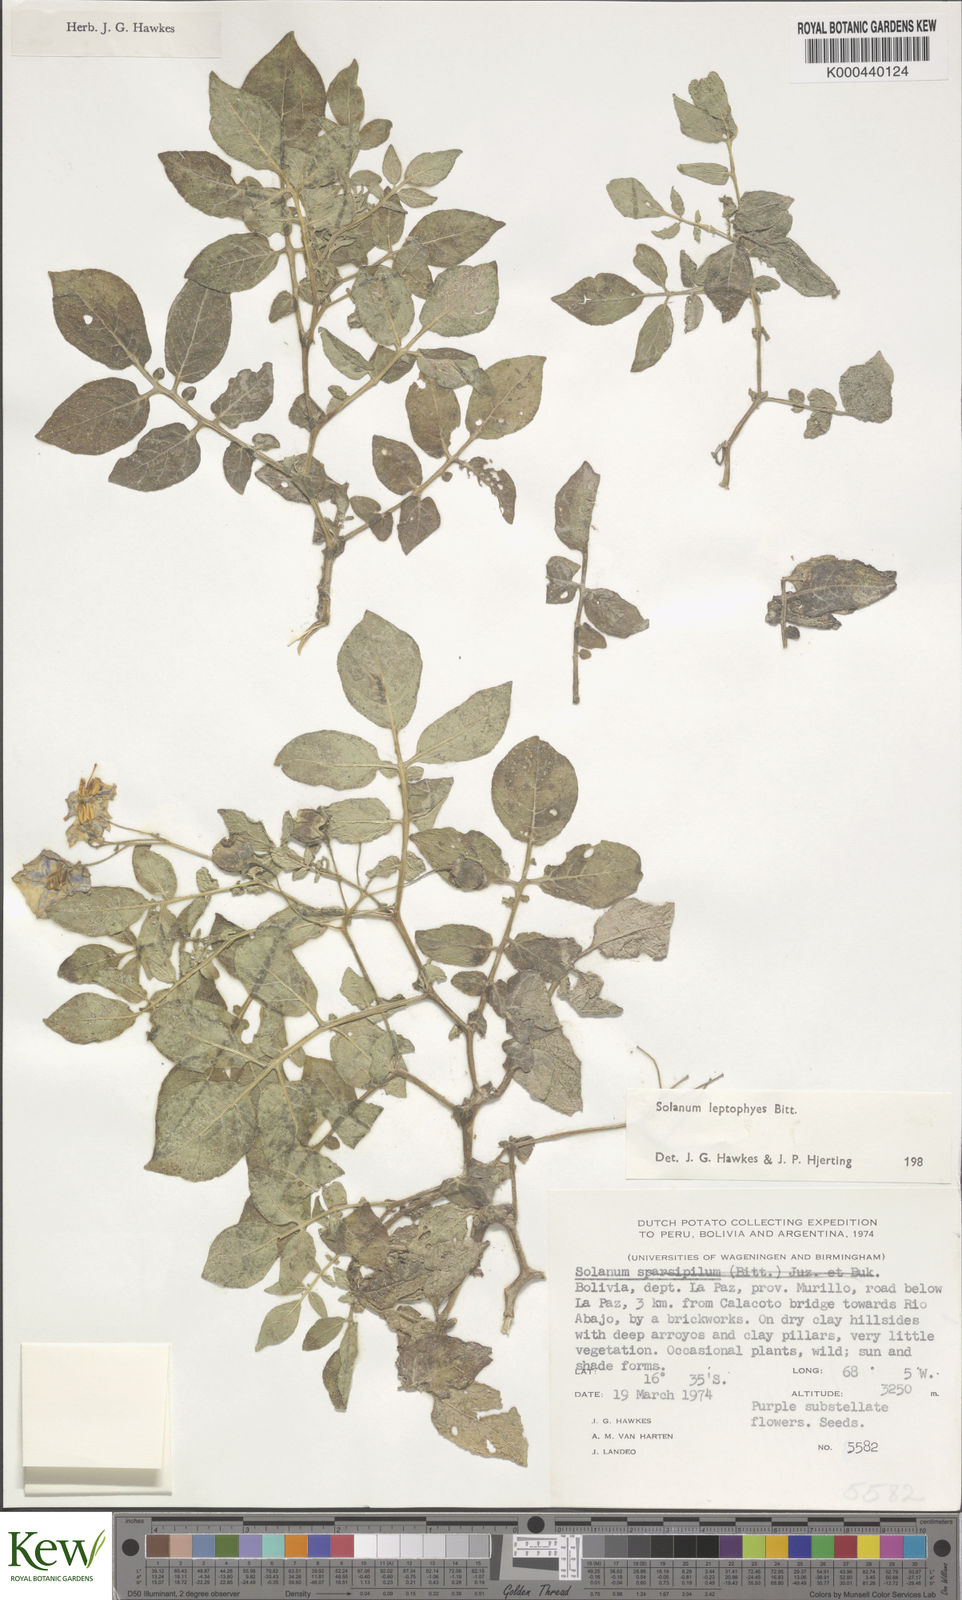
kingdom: Plantae
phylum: Tracheophyta
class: Magnoliopsida
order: Solanales
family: Solanaceae
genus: Solanum
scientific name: Solanum brevicaule
